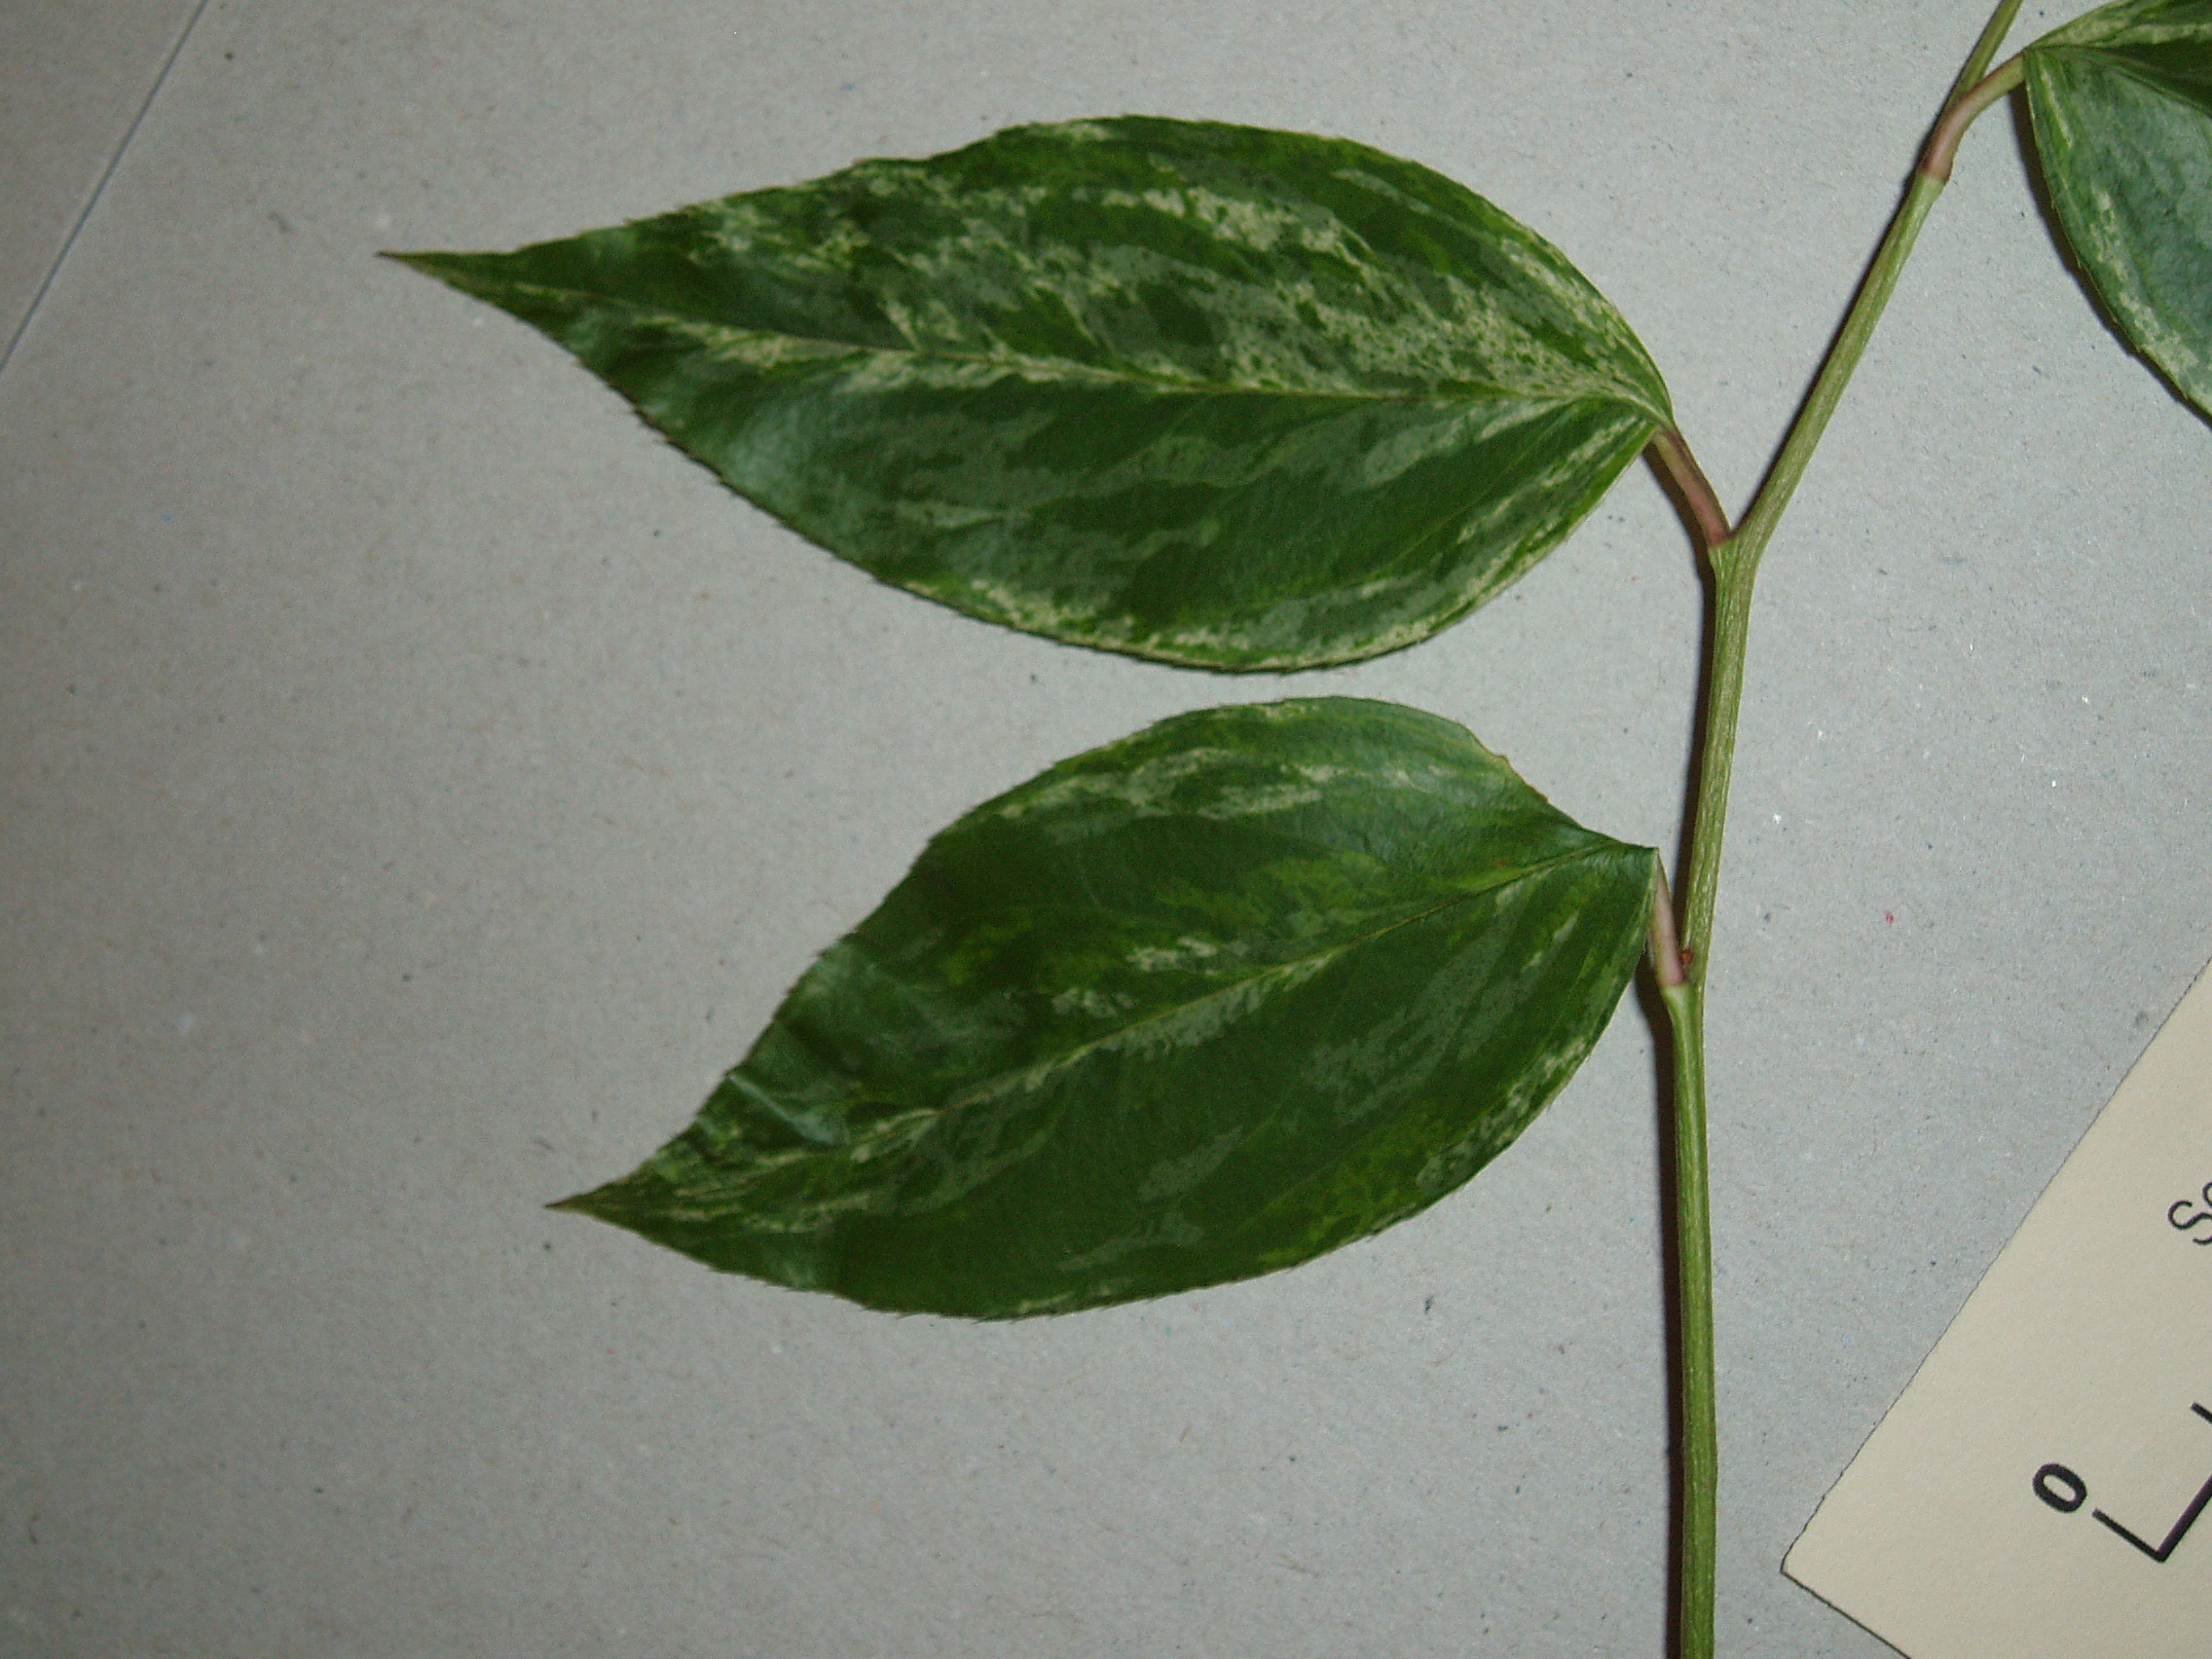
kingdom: Plantae
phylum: Tracheophyta
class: Magnoliopsida
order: Ericales
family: Ericaceae
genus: Leucothoe
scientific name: Leucothoe fontanesiana
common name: Fetterbush
